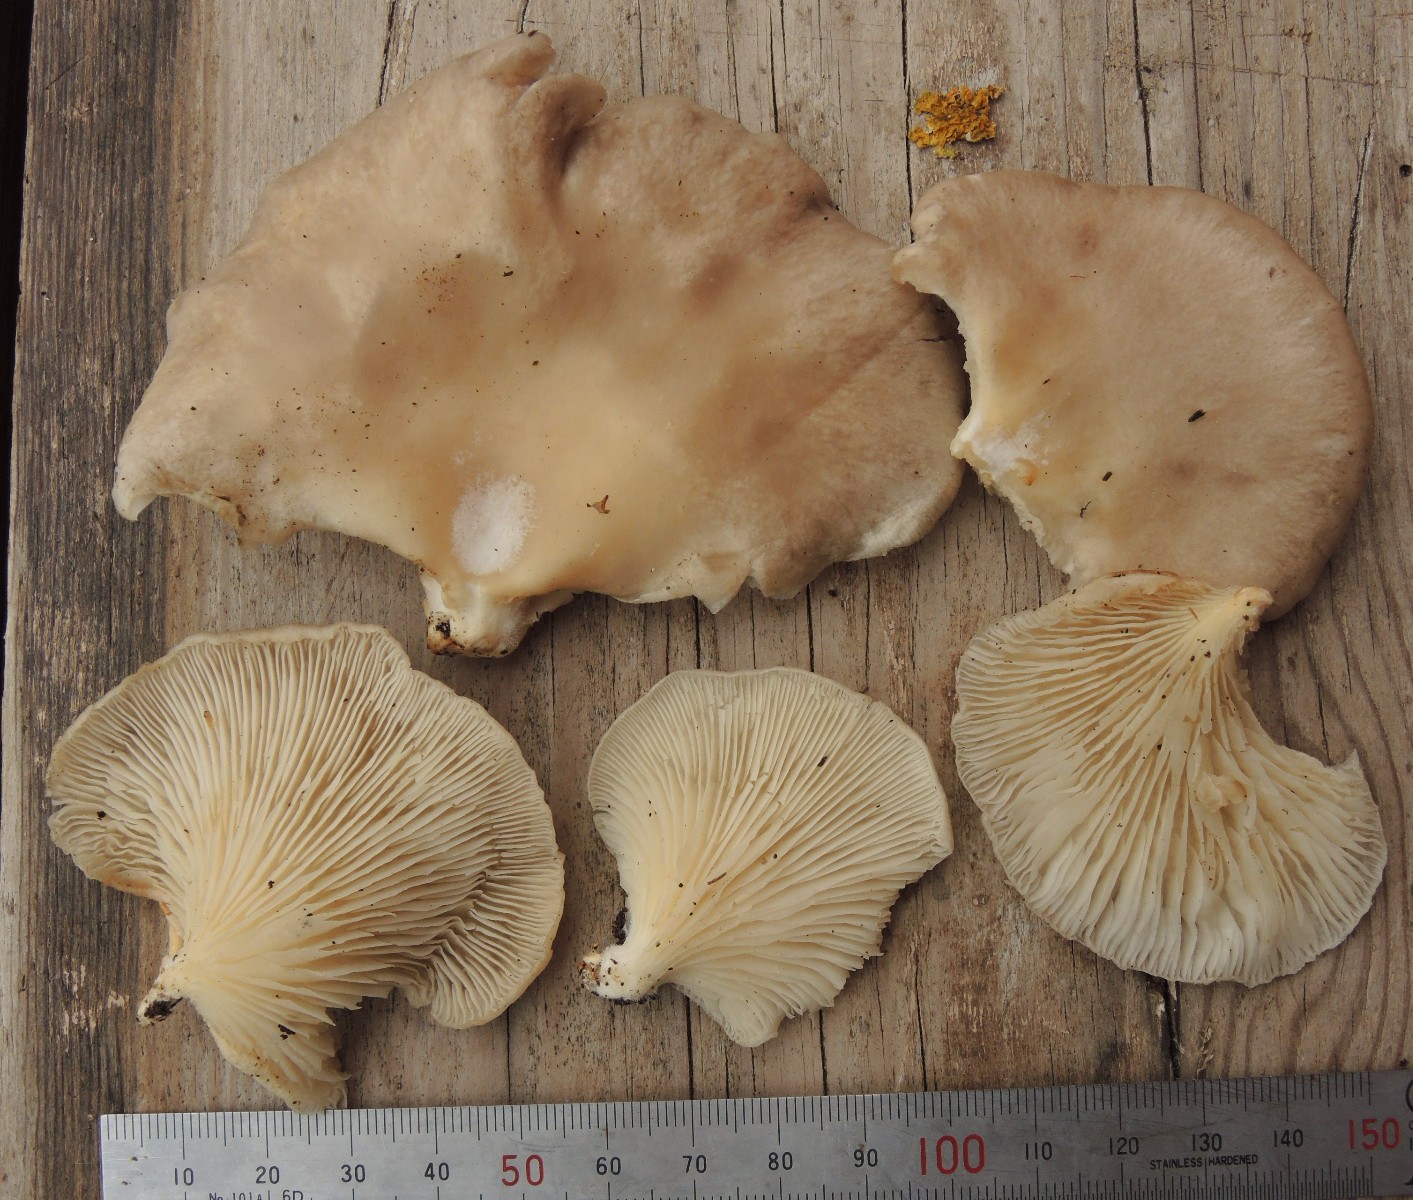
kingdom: Fungi
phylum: Basidiomycota
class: Agaricomycetes
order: Agaricales
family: Pleurotaceae
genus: Pleurotus
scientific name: Pleurotus pulmonarius
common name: sommer-østershat
